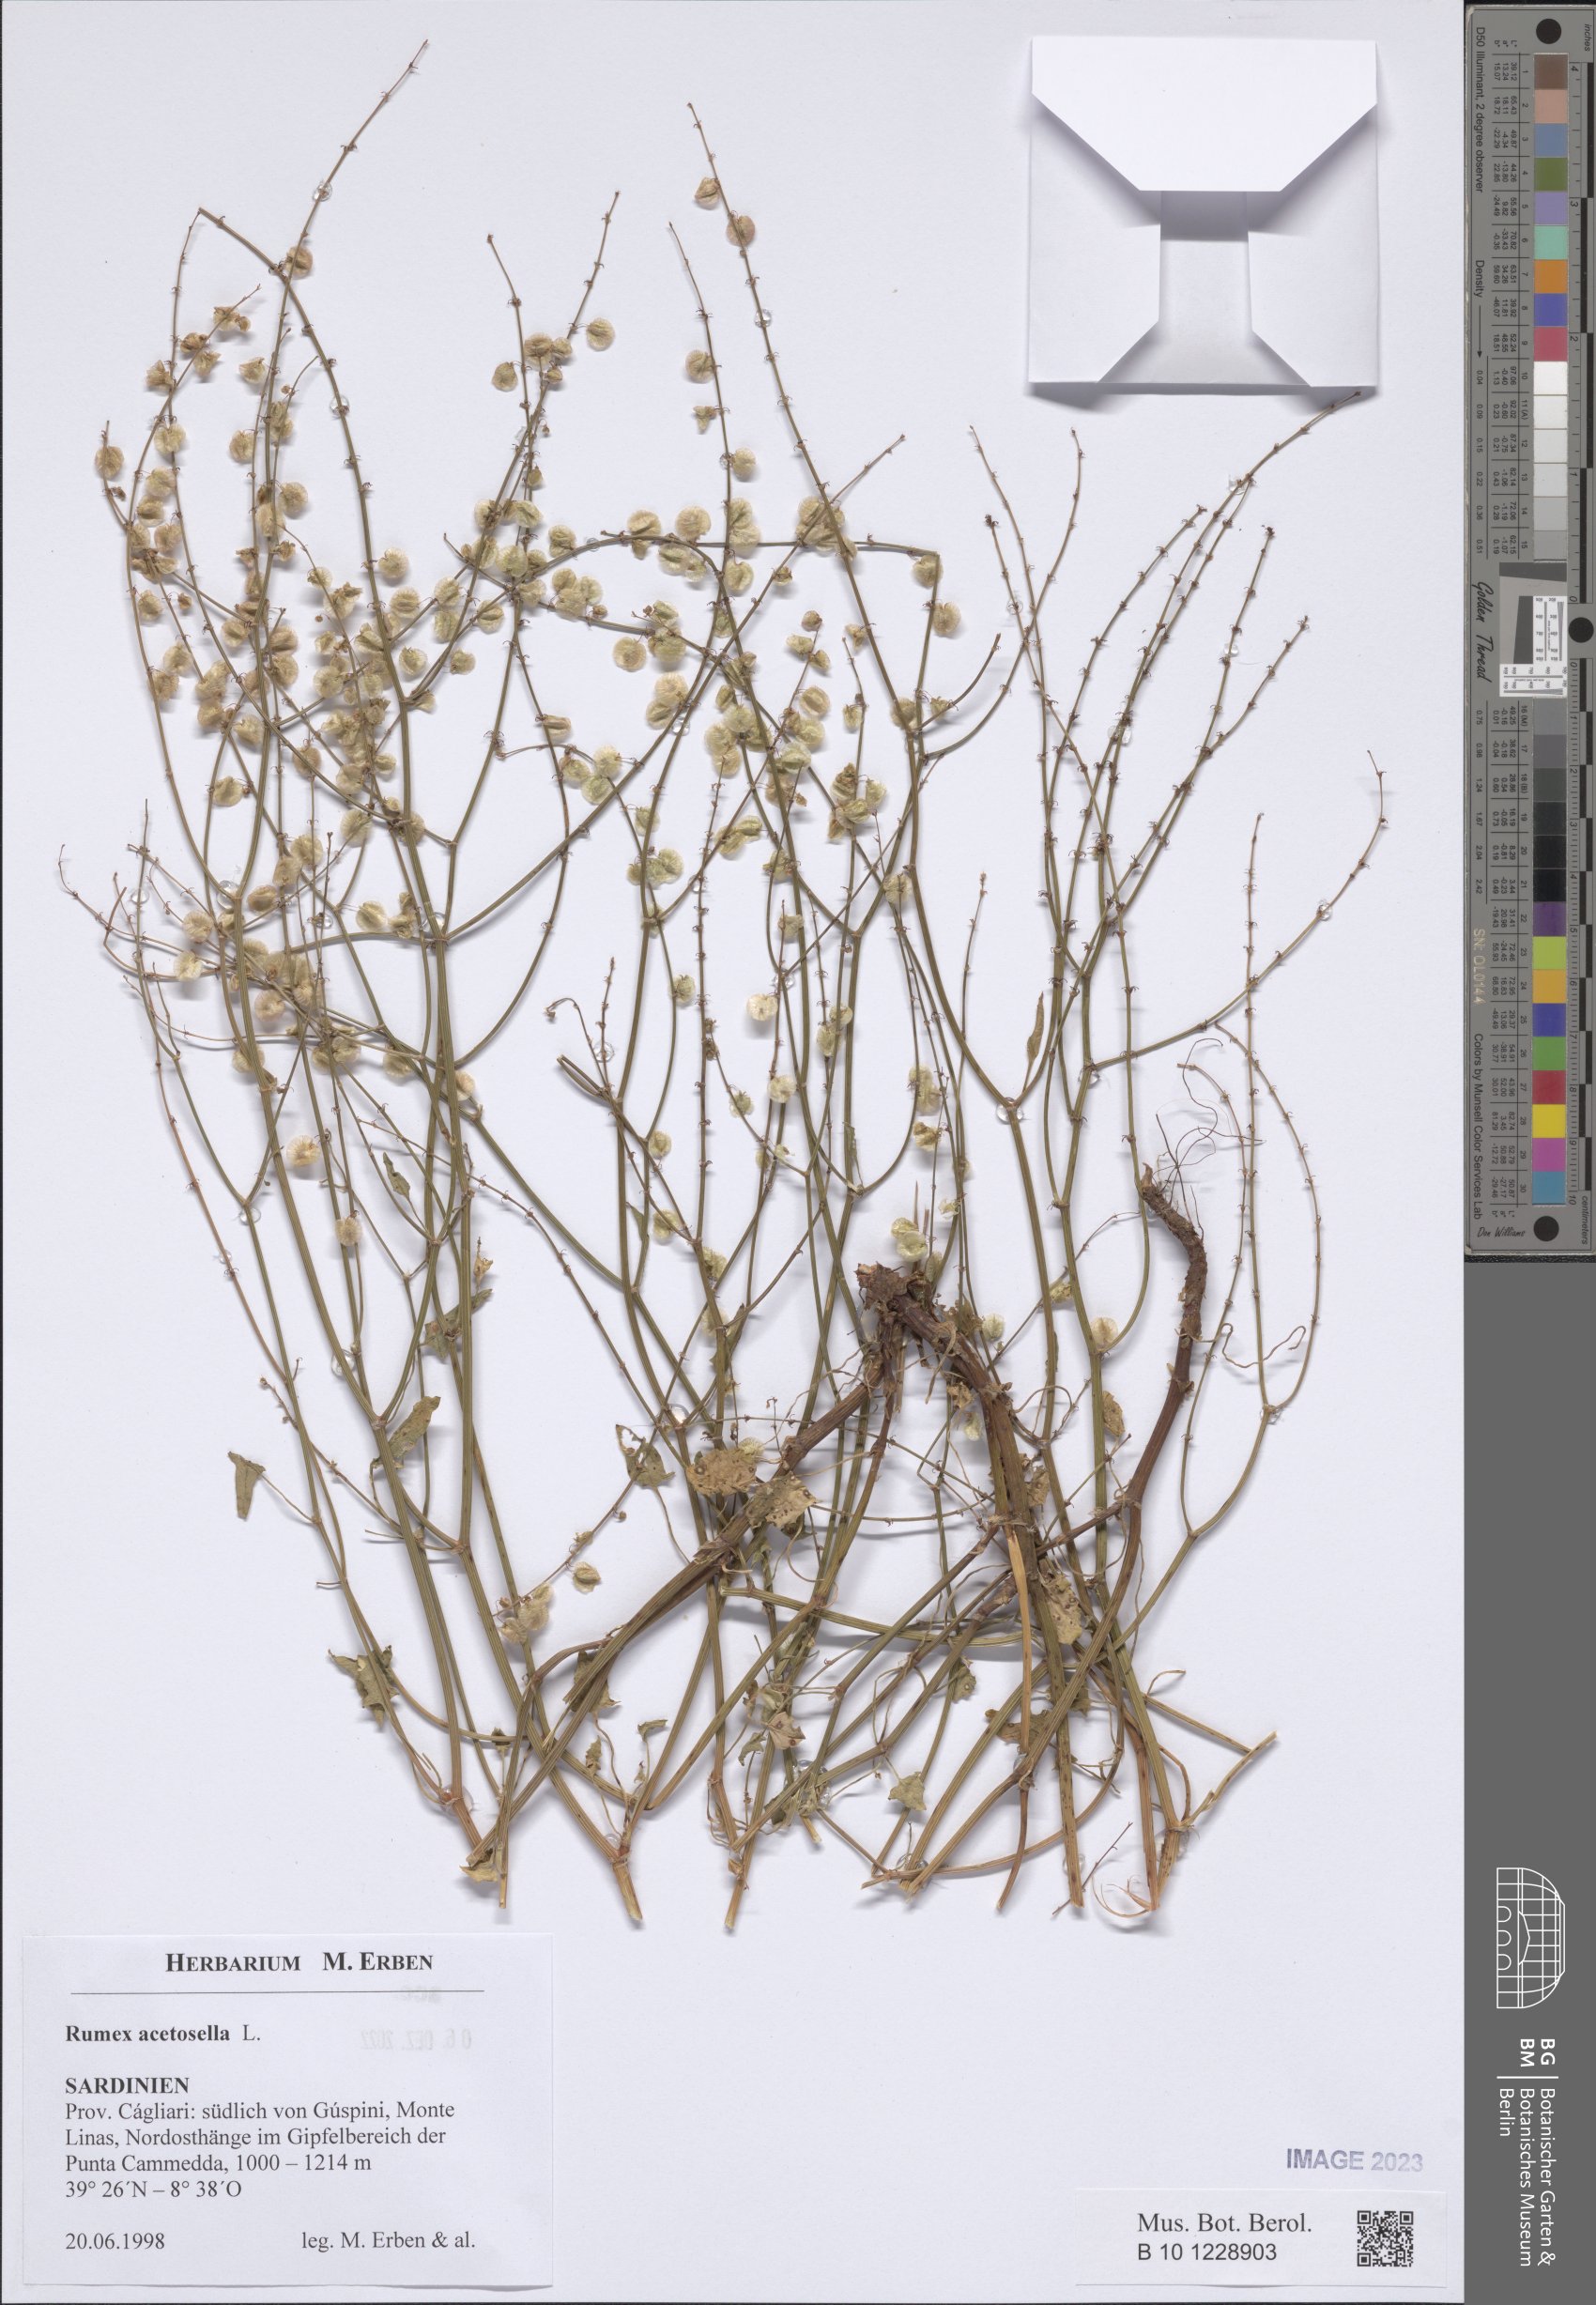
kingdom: Plantae
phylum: Tracheophyta
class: Magnoliopsida
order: Caryophyllales
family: Polygonaceae
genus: Rumex
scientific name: Rumex acetosella
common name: Common sheep sorrel
